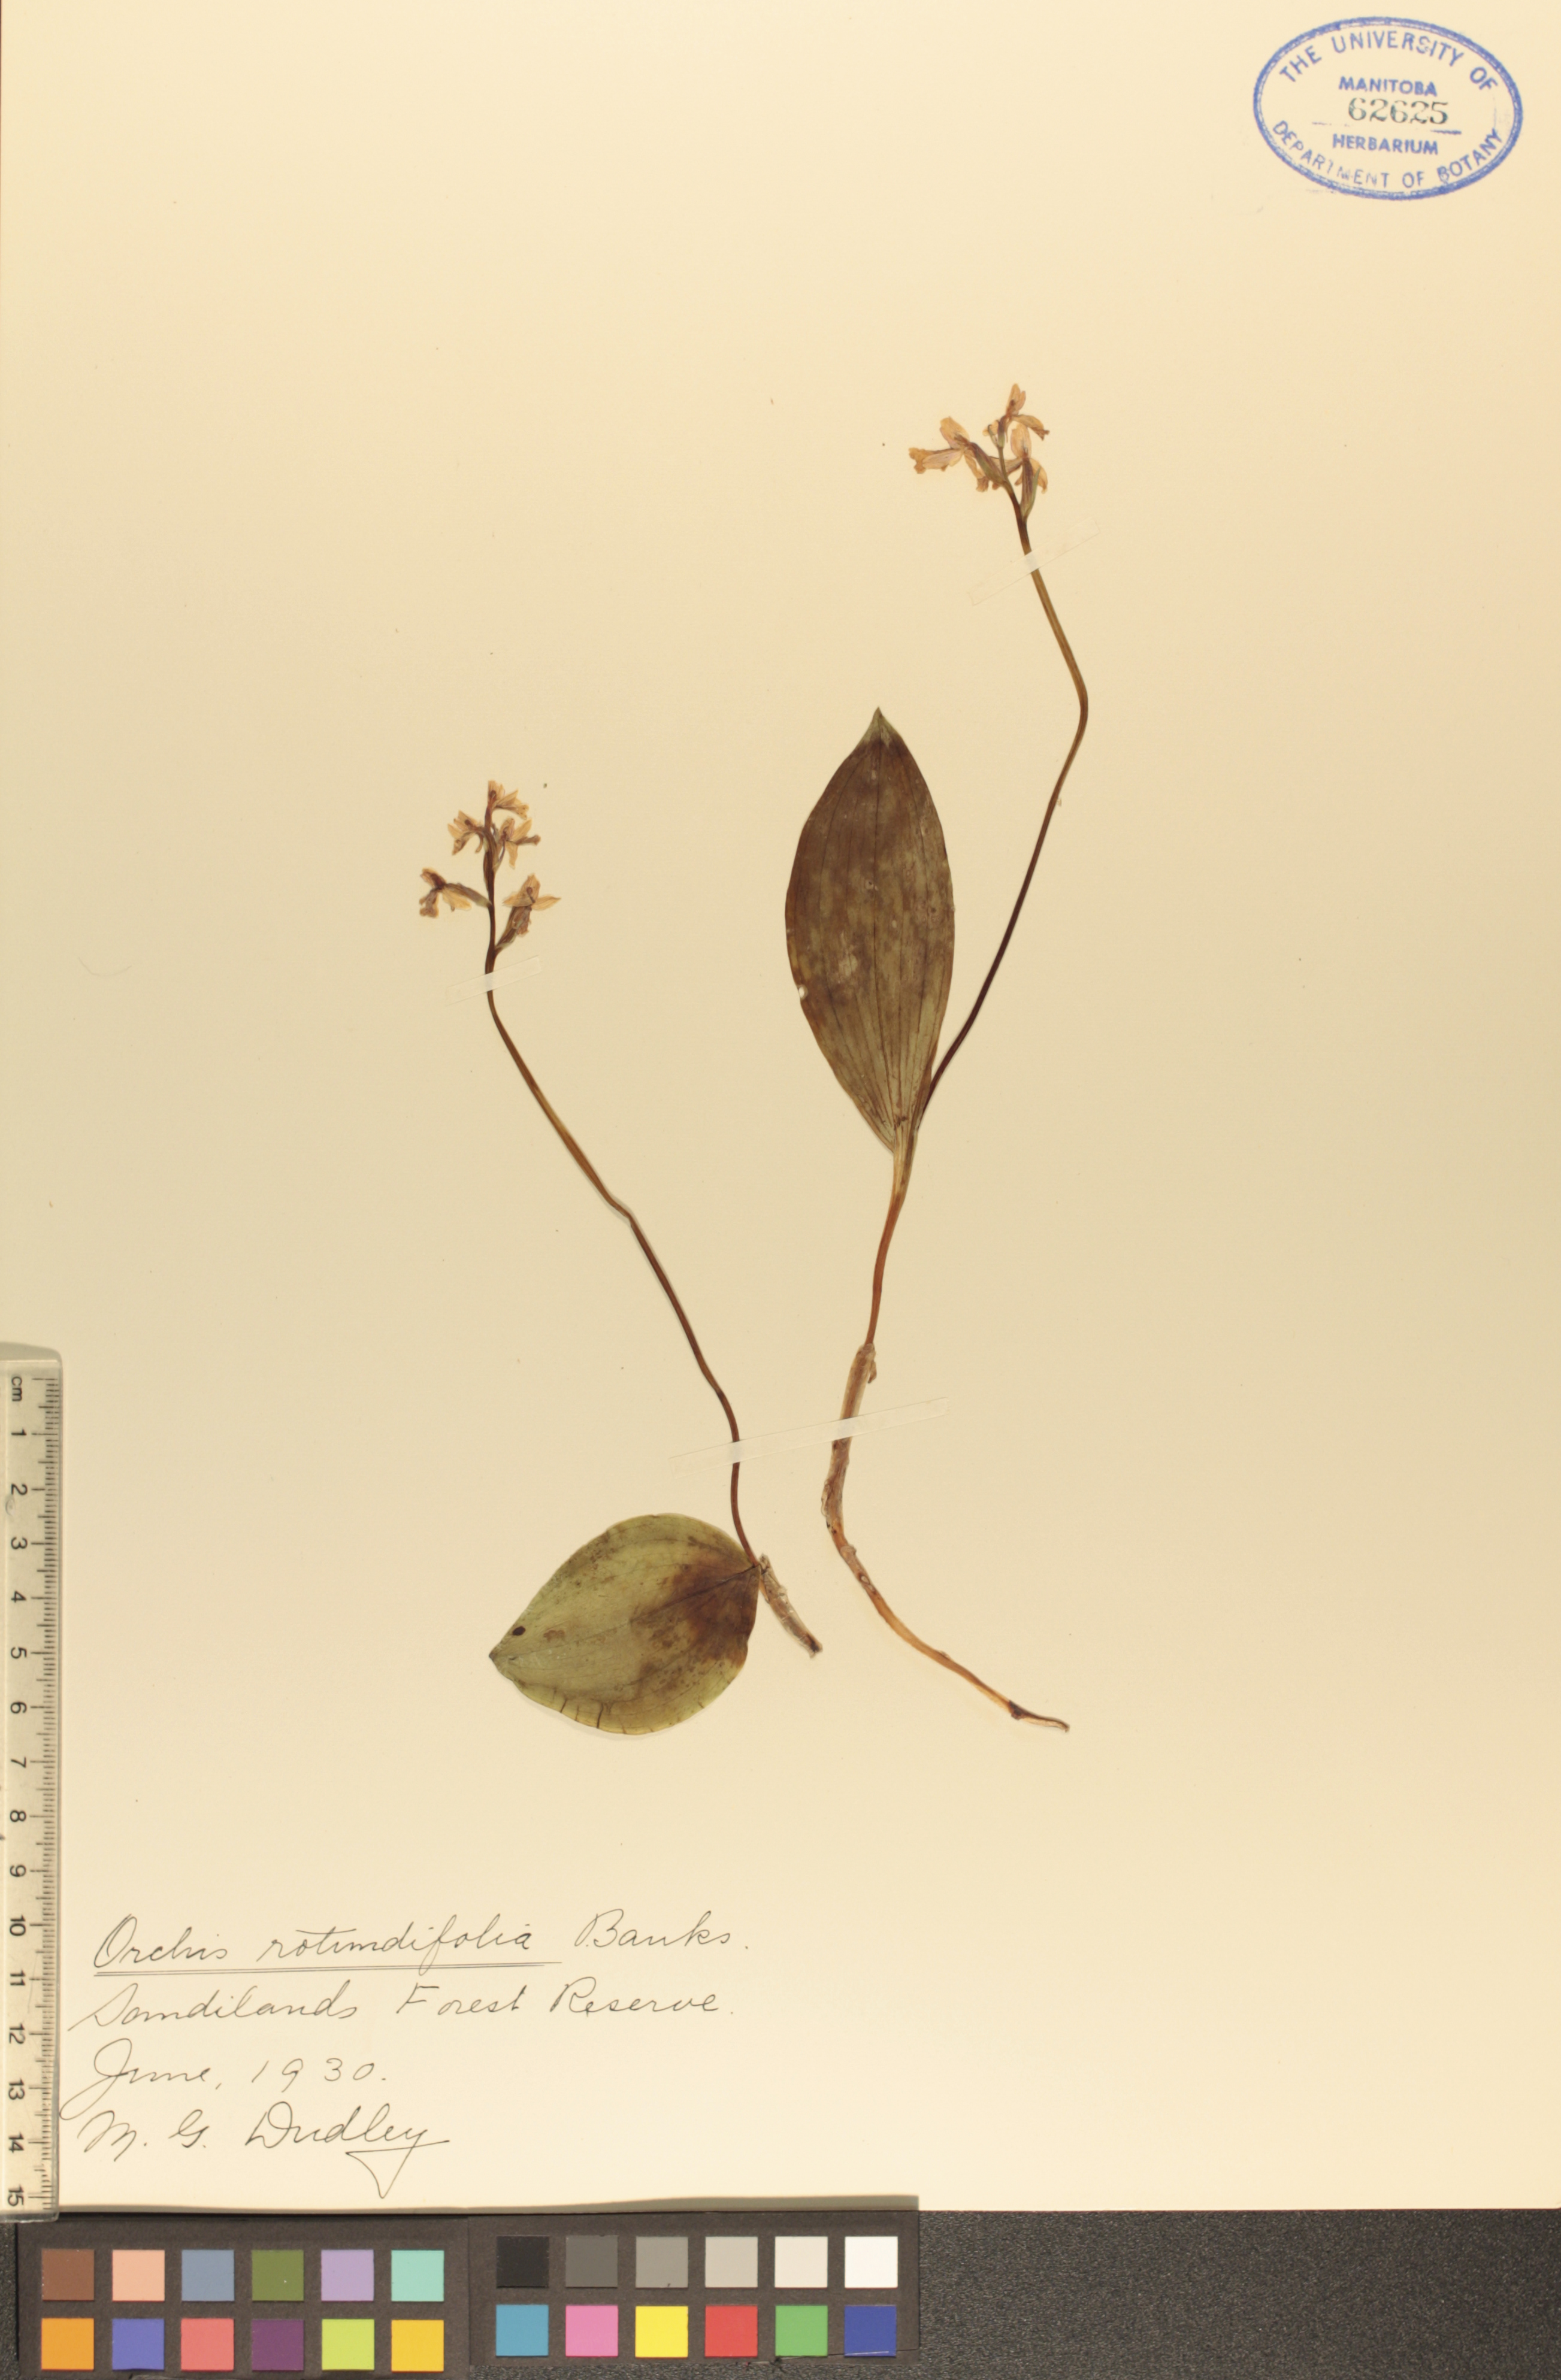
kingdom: Plantae
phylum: Tracheophyta
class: Liliopsida
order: Asparagales
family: Orchidaceae
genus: Galearis
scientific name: Galearis rotundifolia
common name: One-leaved orchis
